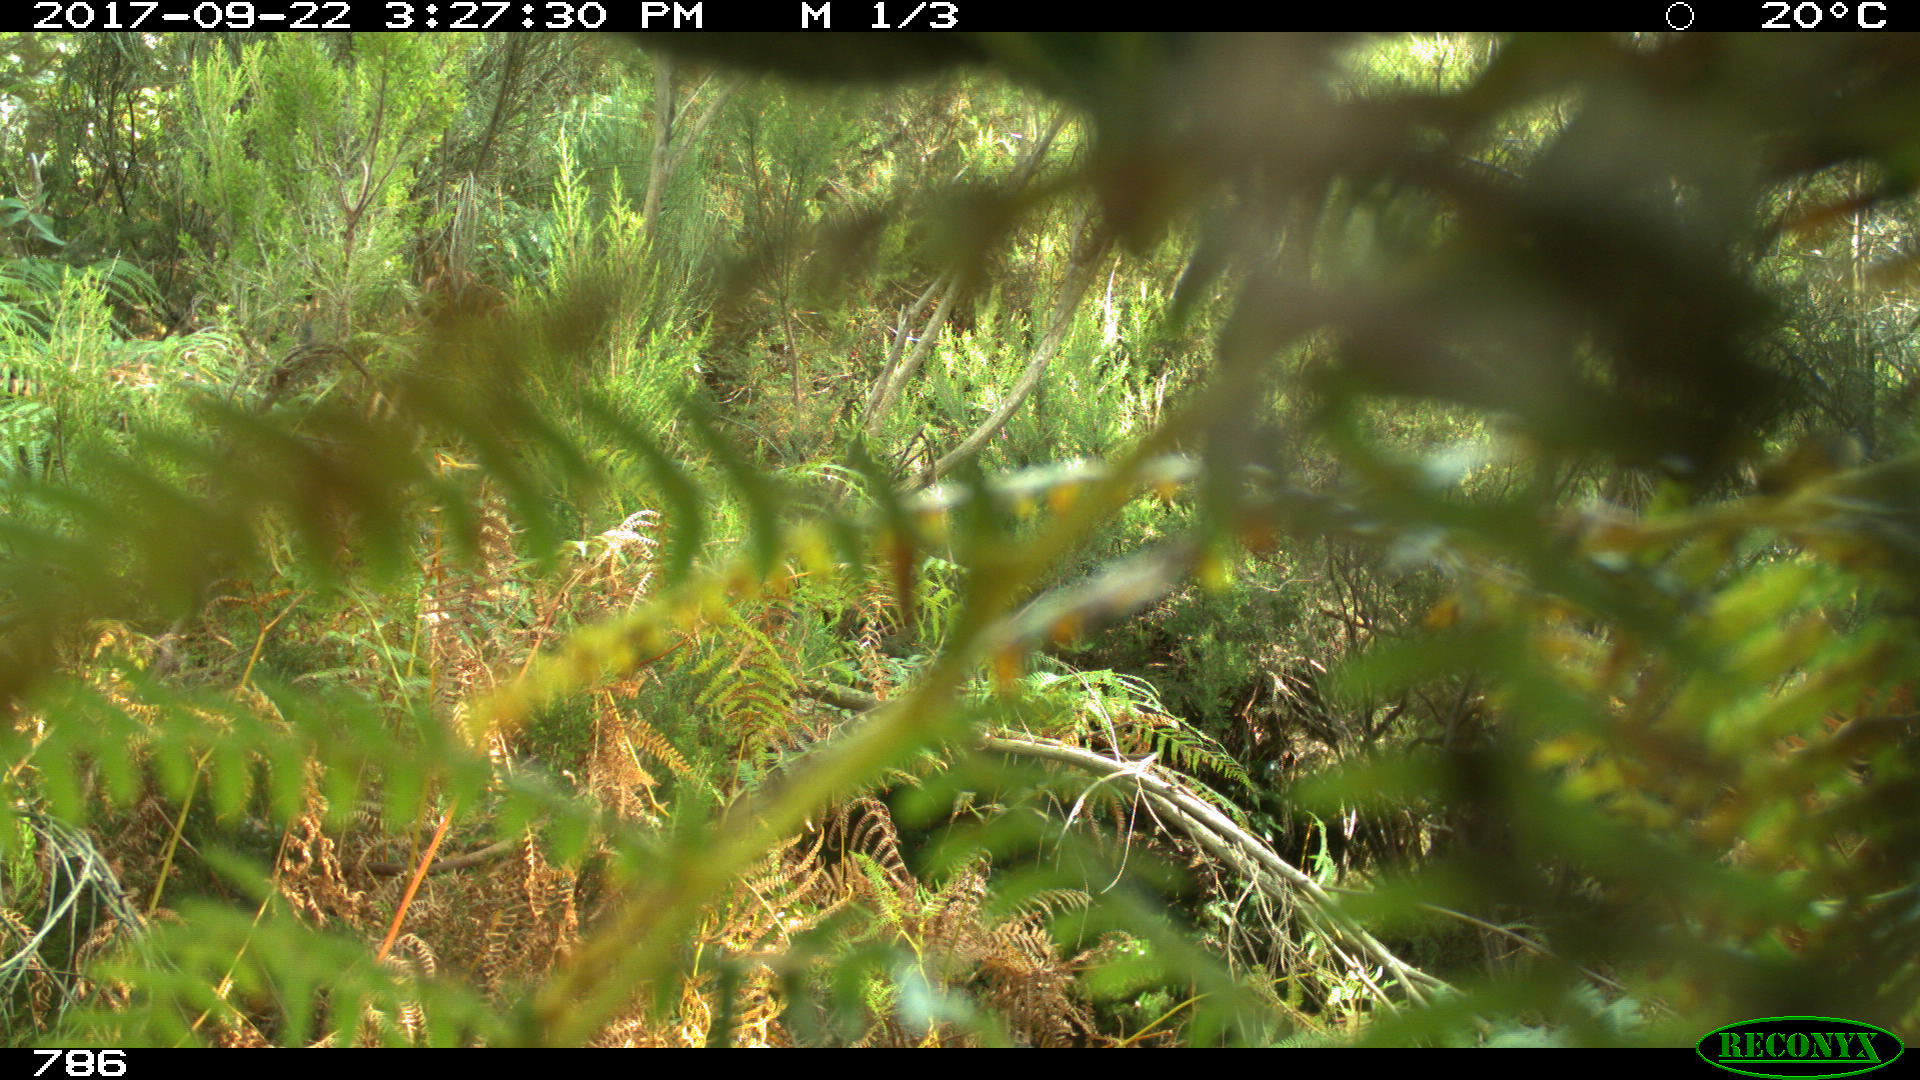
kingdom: Animalia
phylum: Chordata
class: Mammalia
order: Perissodactyla
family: Equidae
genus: Equus
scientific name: Equus caballus
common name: Horse
